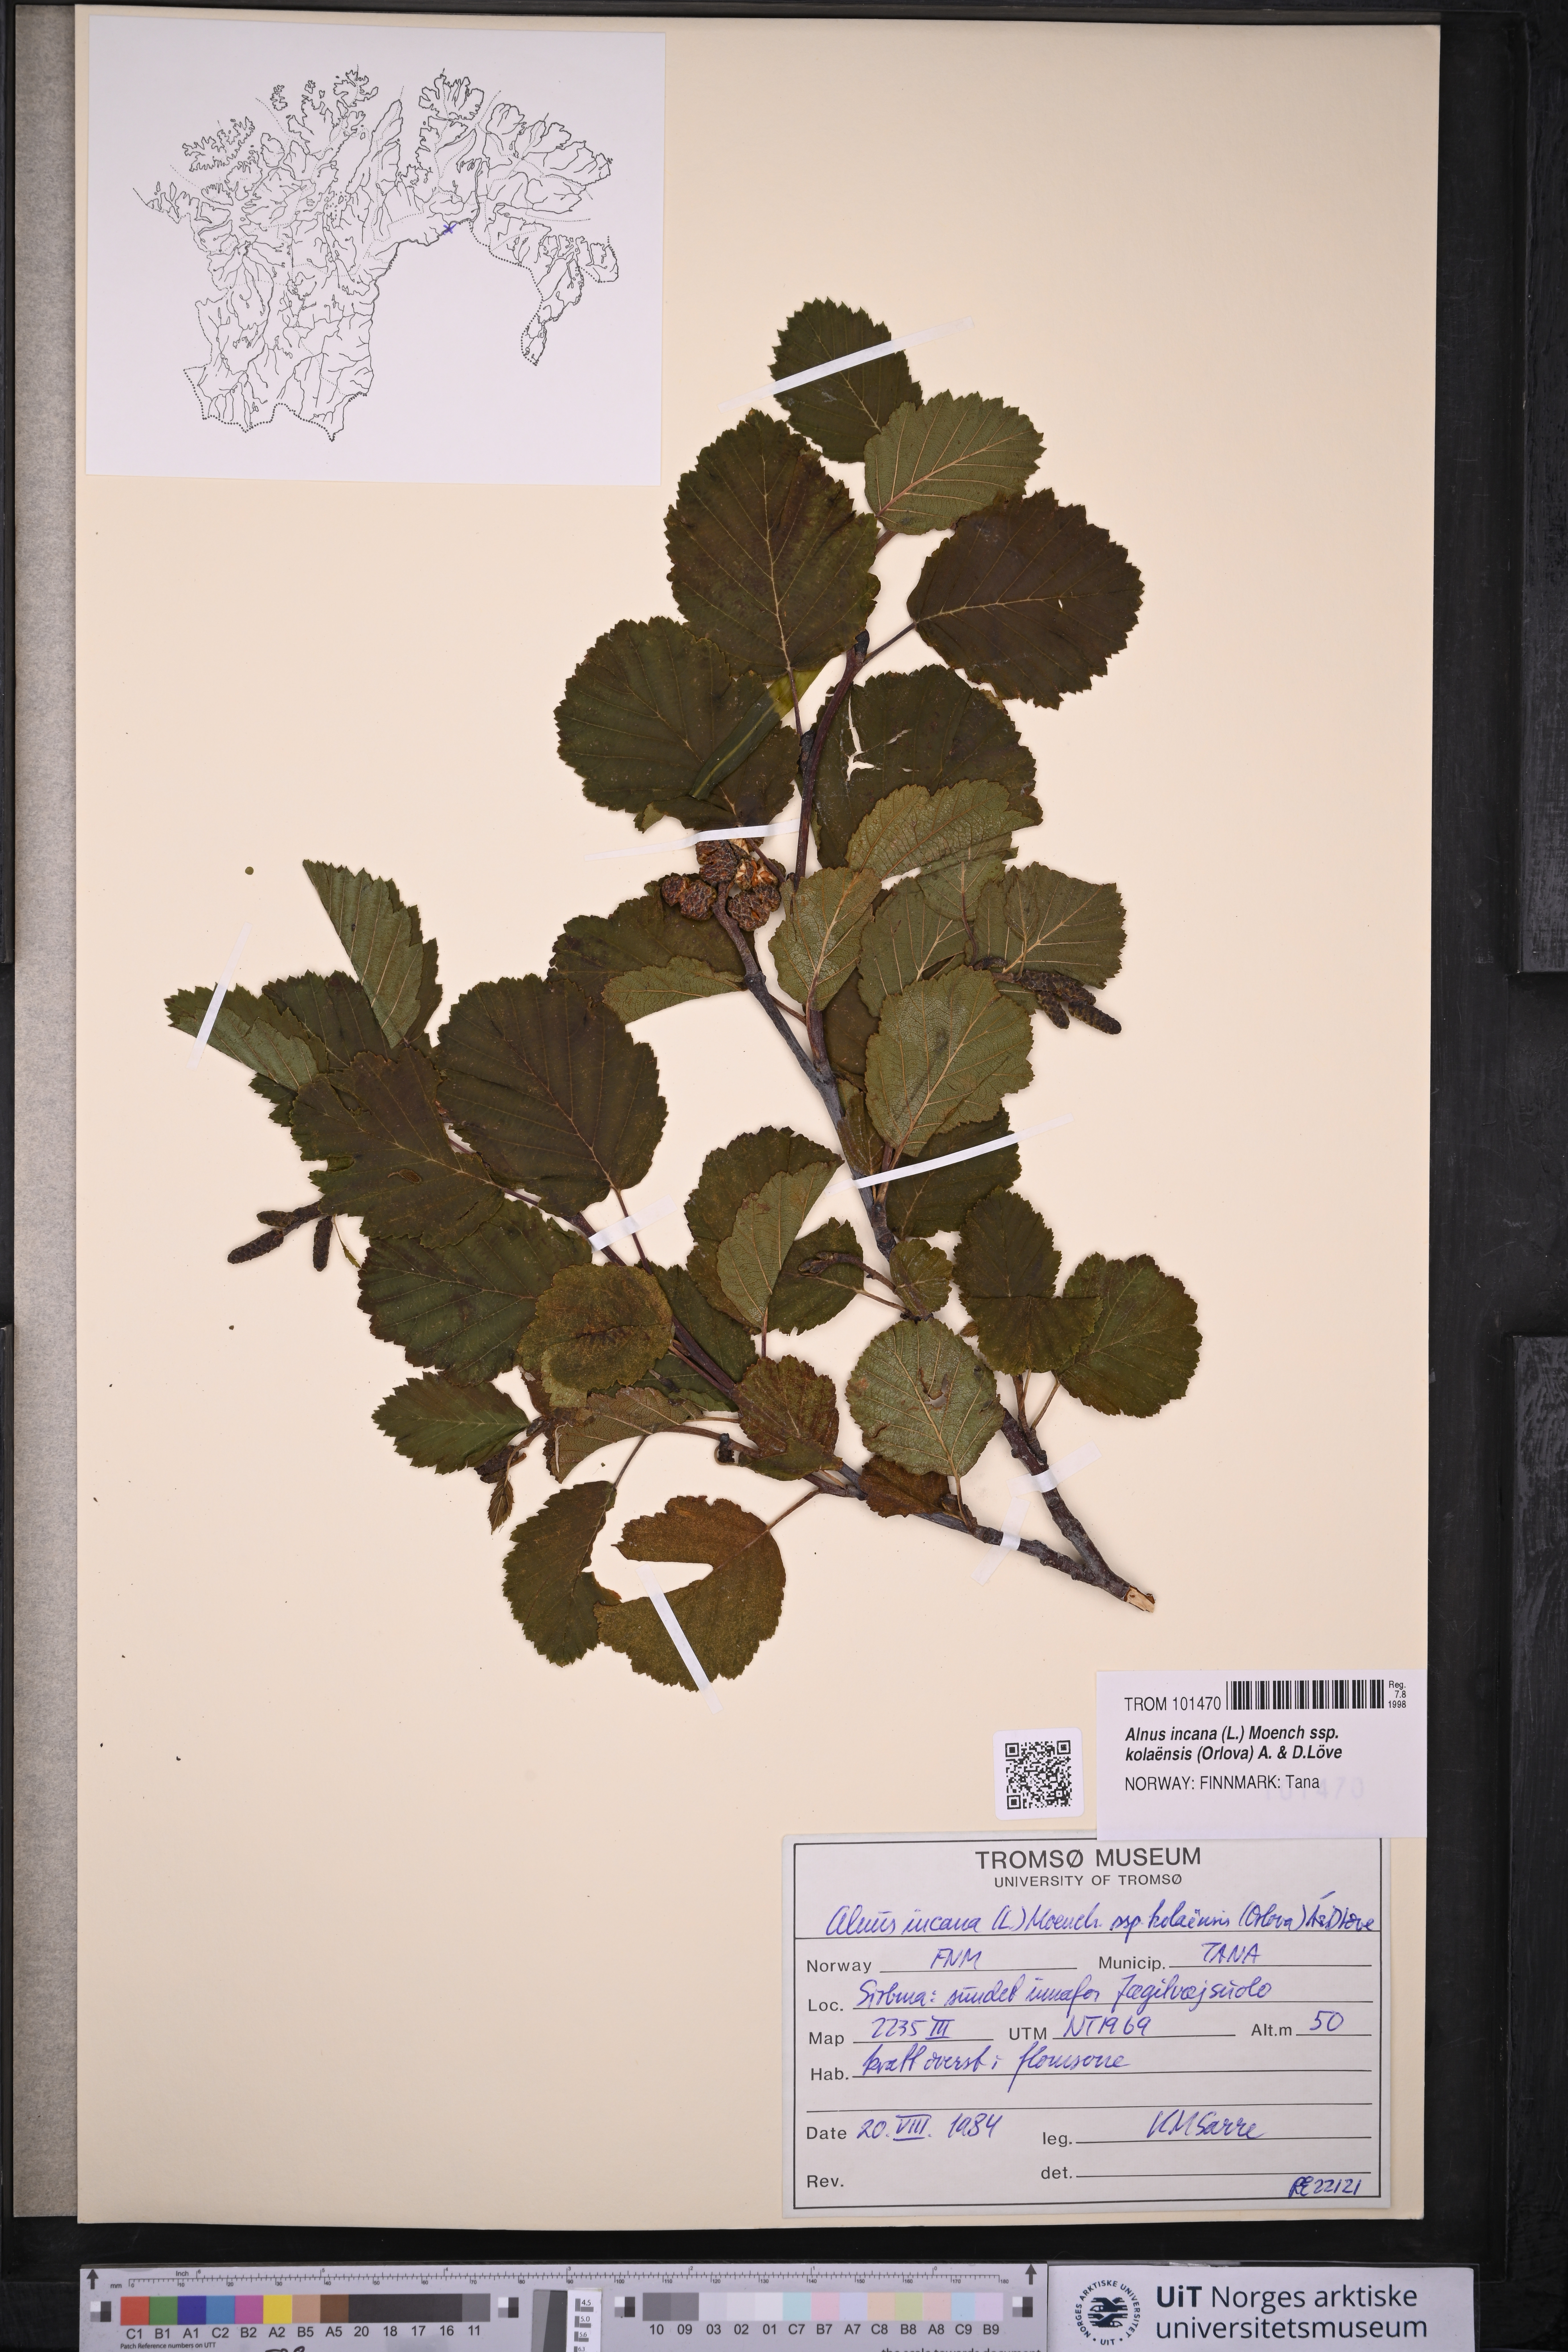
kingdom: Plantae
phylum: Tracheophyta
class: Magnoliopsida
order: Fagales
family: Betulaceae
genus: Alnus
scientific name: Alnus incana
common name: Grey alder
